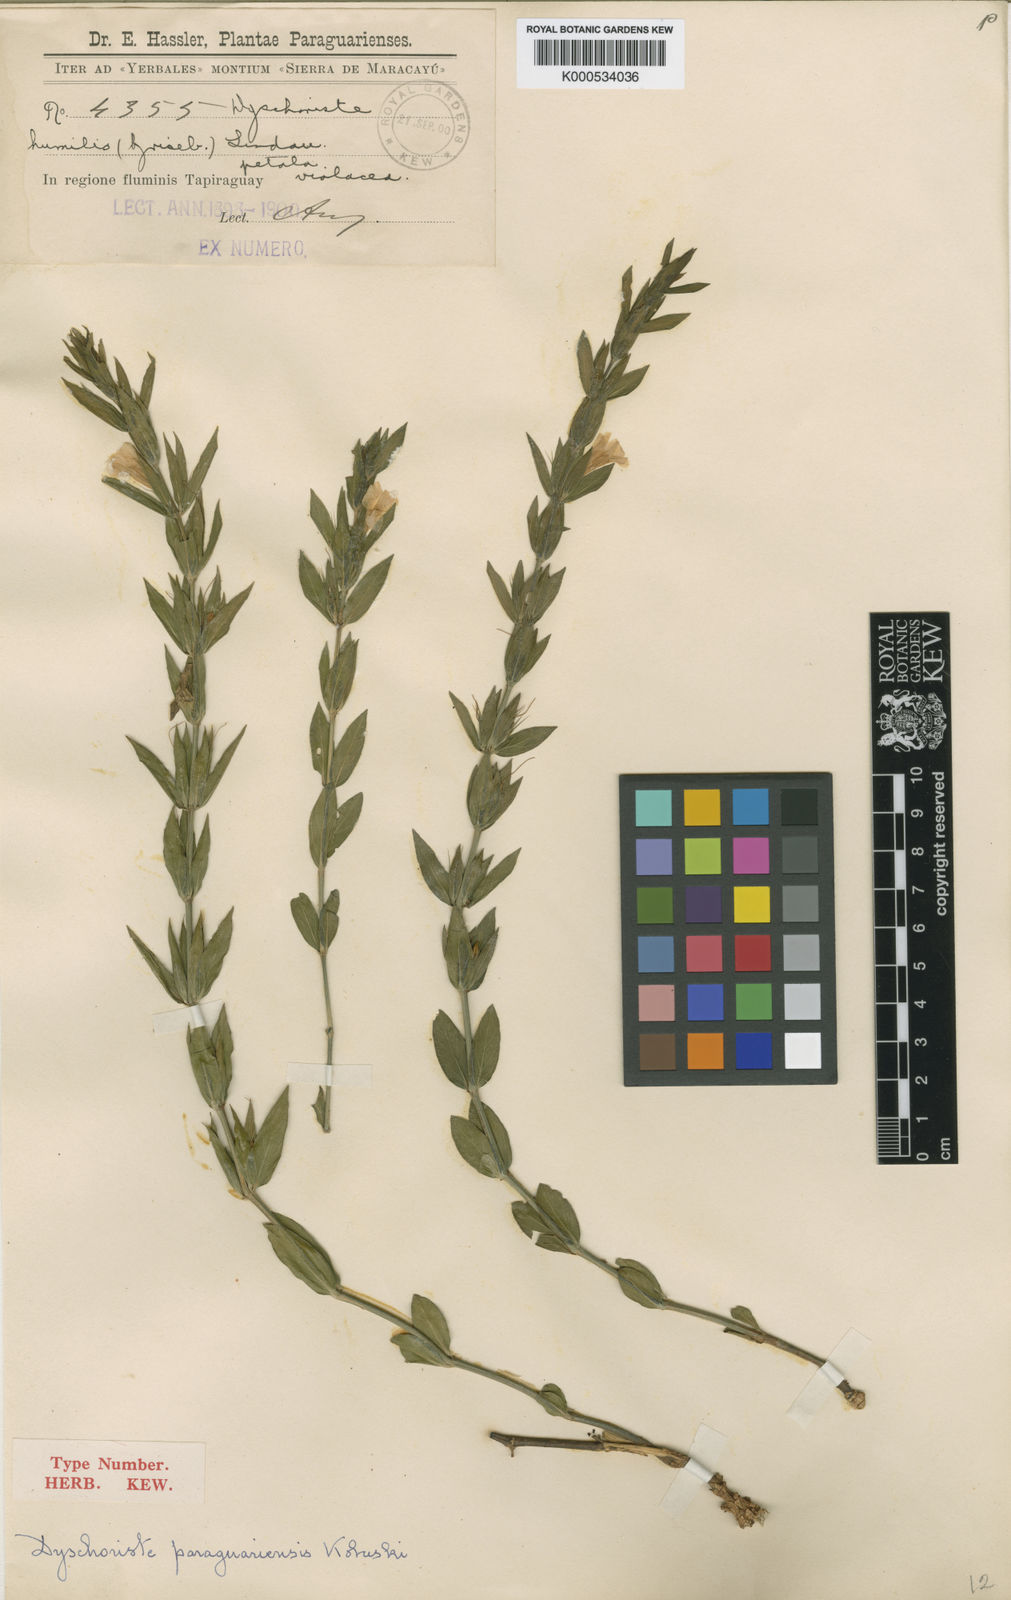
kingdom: Plantae
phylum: Tracheophyta
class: Magnoliopsida
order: Lamiales
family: Acanthaceae
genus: Dyschoriste
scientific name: Dyschoriste serpyllum
